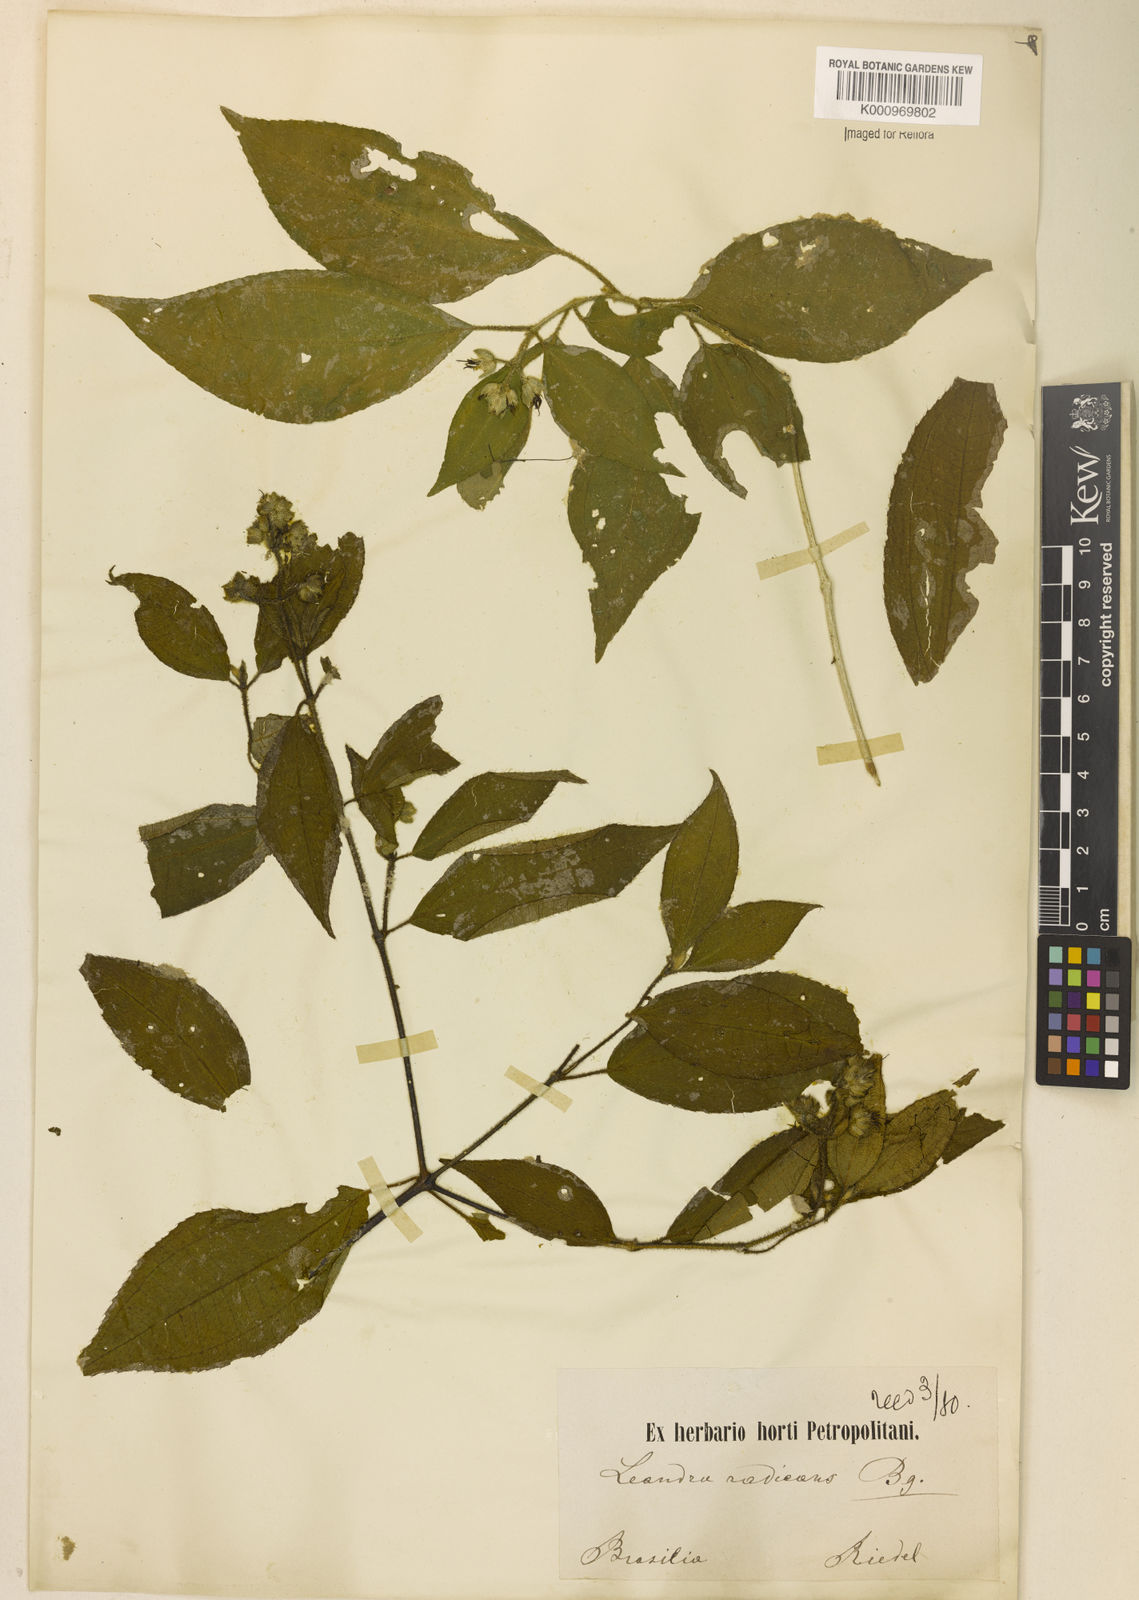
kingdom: Plantae
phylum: Tracheophyta
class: Magnoliopsida
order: Myrtales
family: Melastomataceae
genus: Miconia
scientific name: Miconia Leandra radicans
